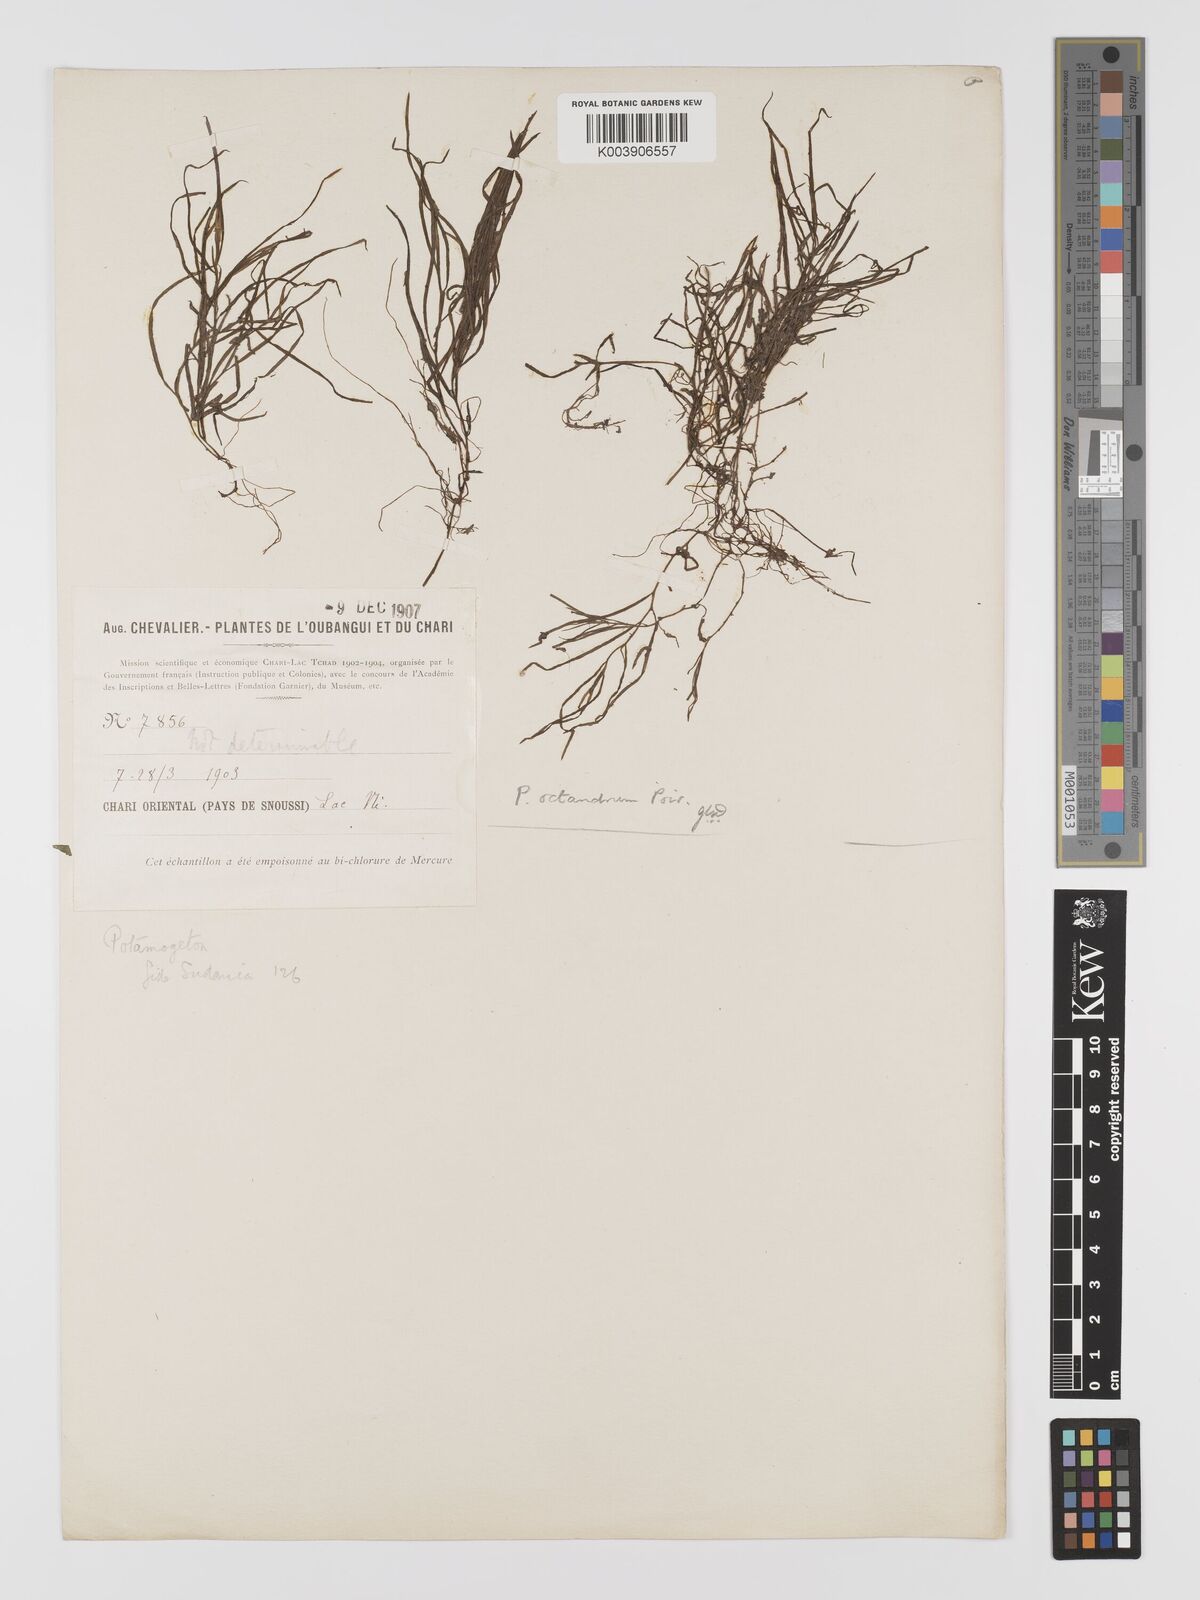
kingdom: Plantae
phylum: Tracheophyta
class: Liliopsida
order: Alismatales
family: Potamogetonaceae
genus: Potamogeton
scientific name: Potamogeton octandrus
